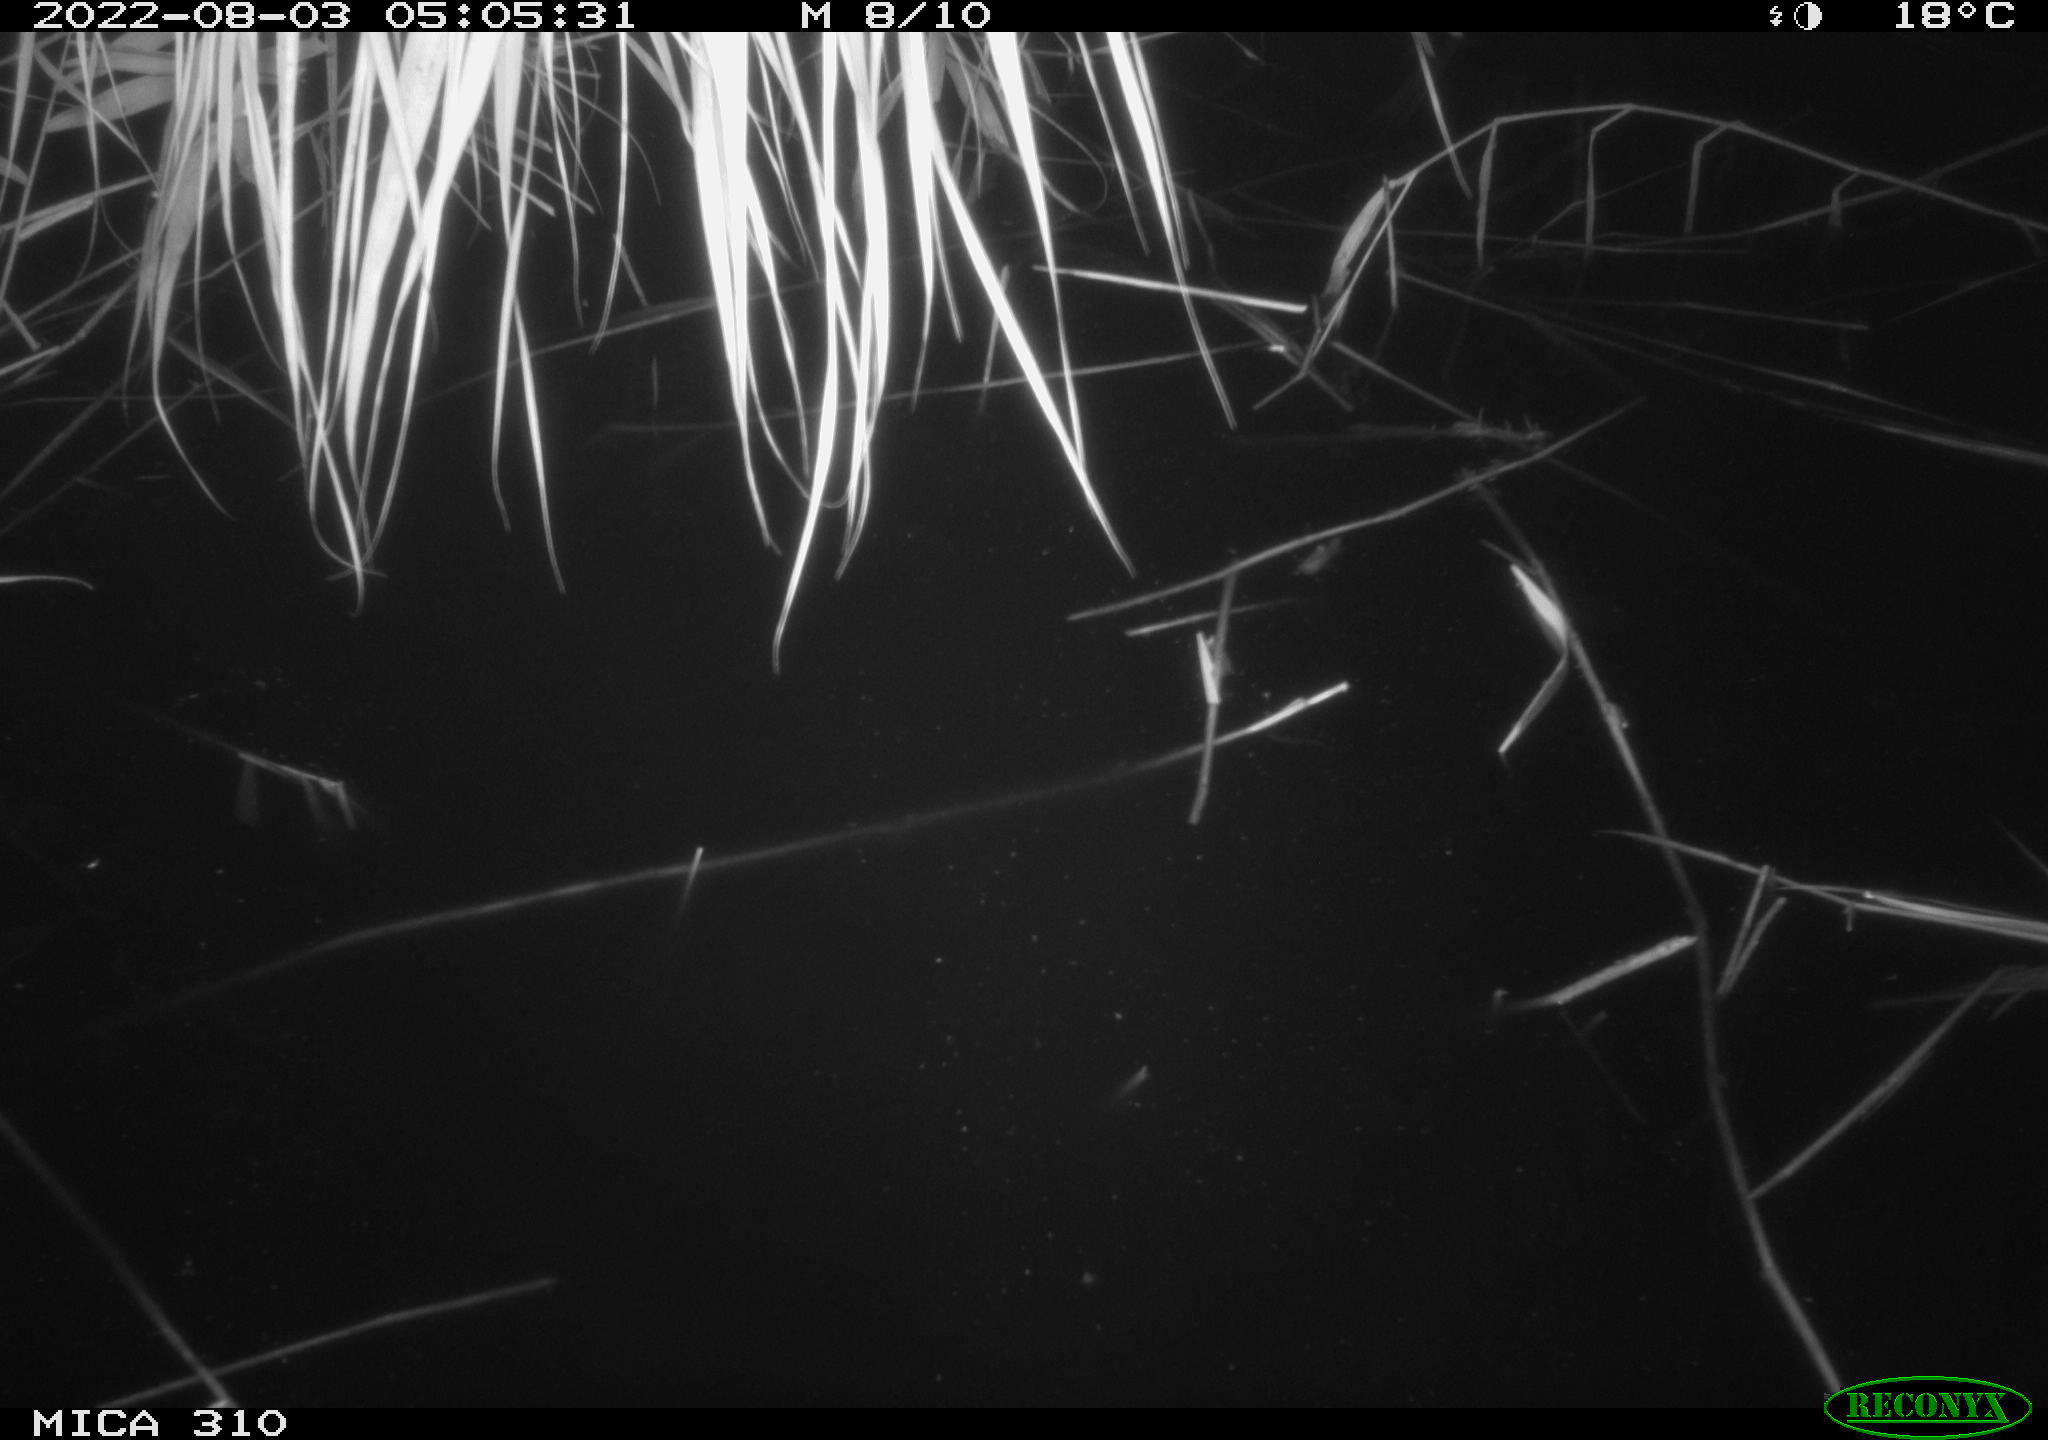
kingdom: Animalia
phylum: Chordata
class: Aves
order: Anseriformes
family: Anatidae
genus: Anas
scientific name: Anas platyrhynchos
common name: Mallard
